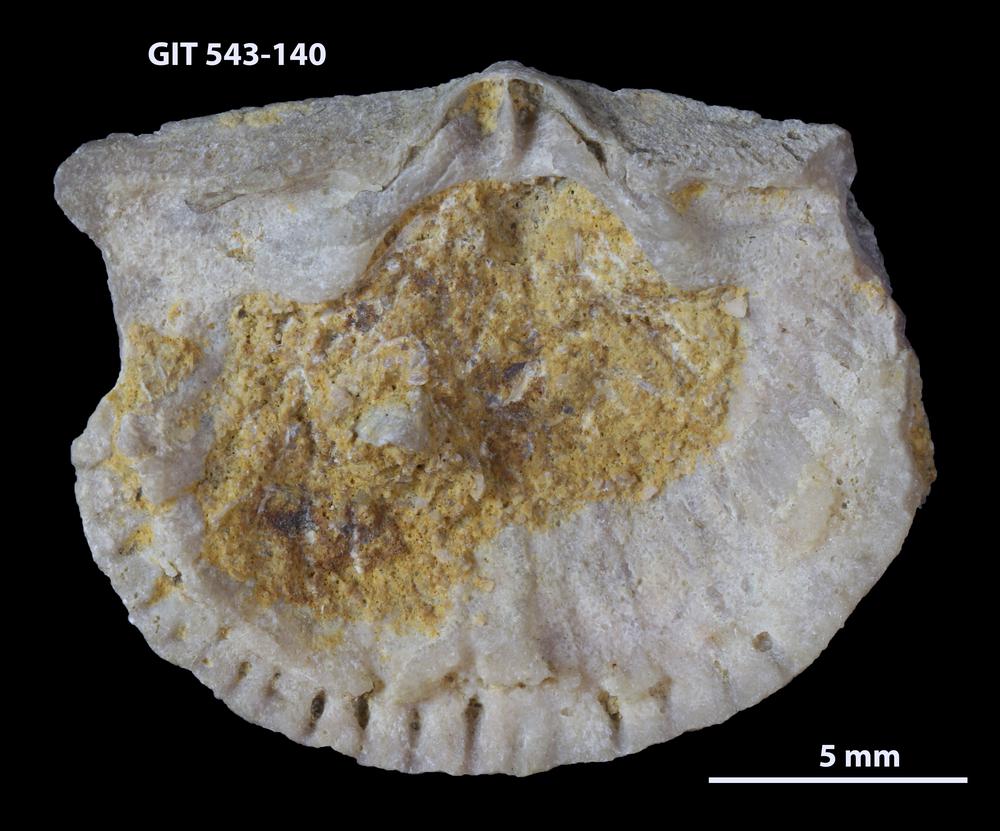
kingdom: Animalia
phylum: Brachiopoda
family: Gonambonitidae
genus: Estlandia
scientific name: Estlandia Orthisina marginata
